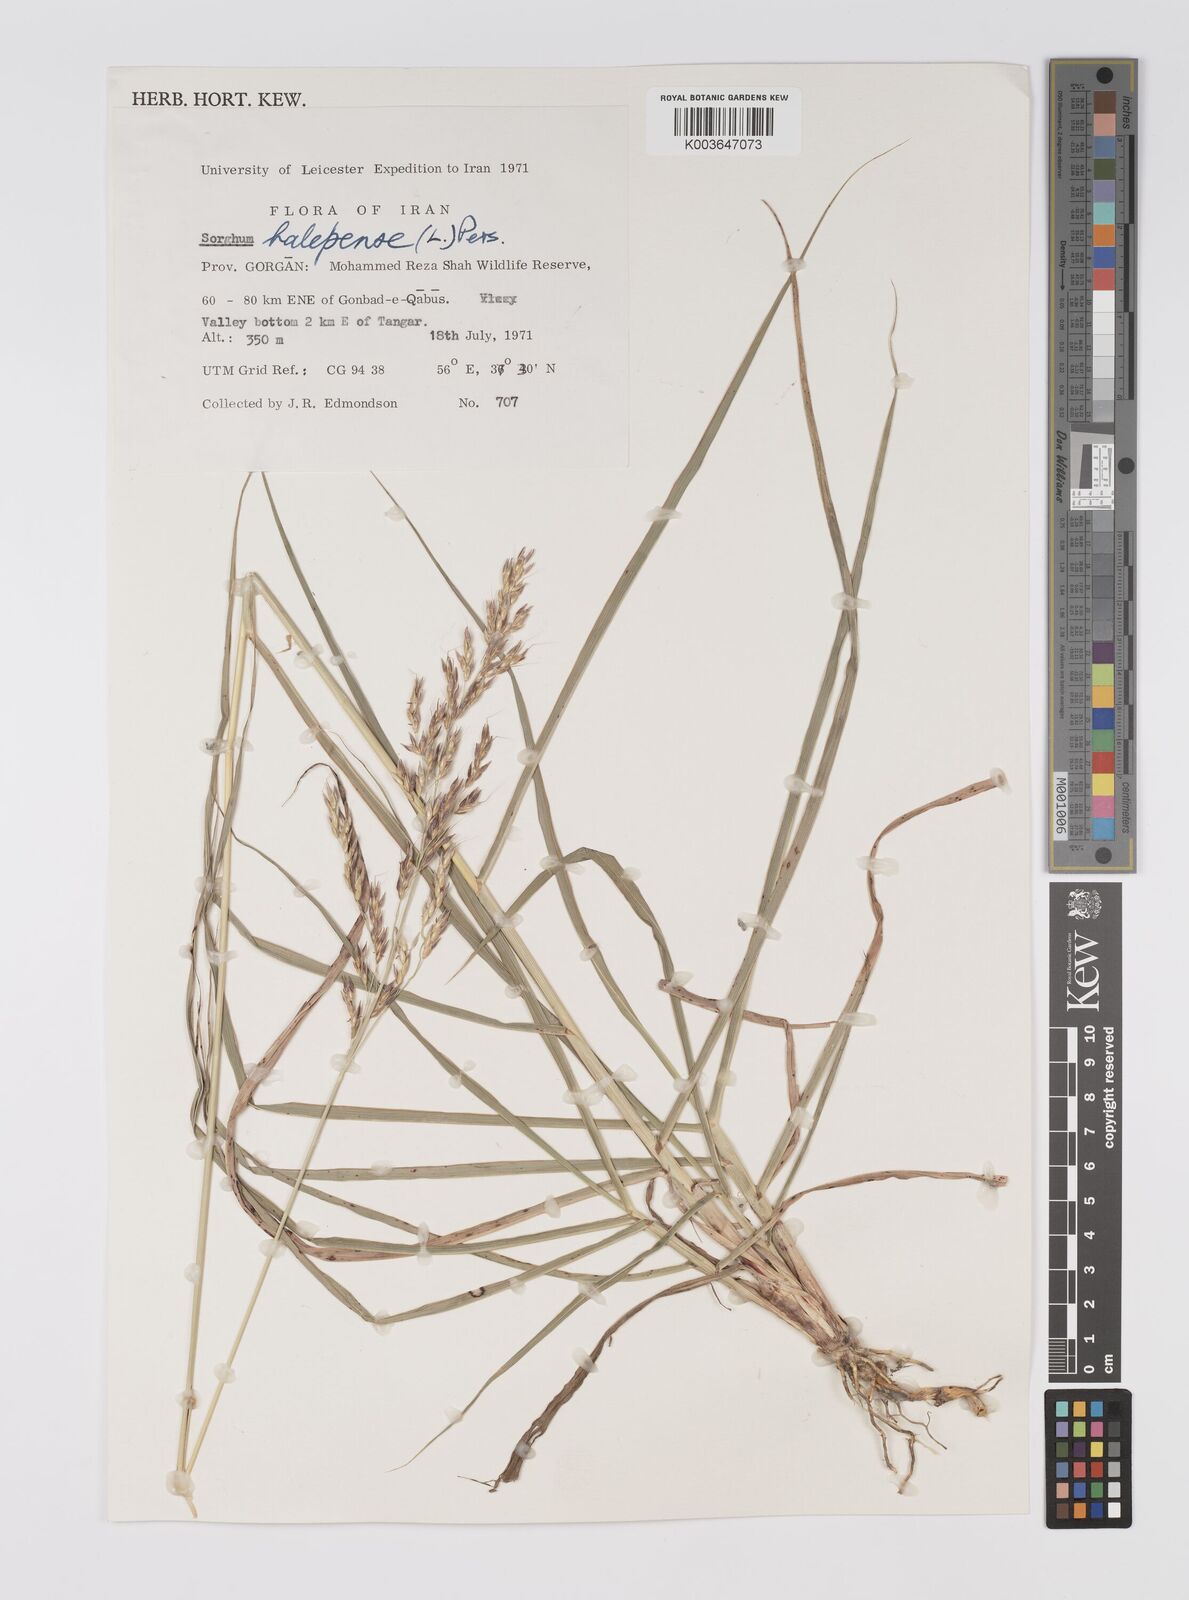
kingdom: Plantae
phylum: Tracheophyta
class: Liliopsida
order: Poales
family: Poaceae
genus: Sorghum
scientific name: Sorghum halepense
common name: Johnson-grass
